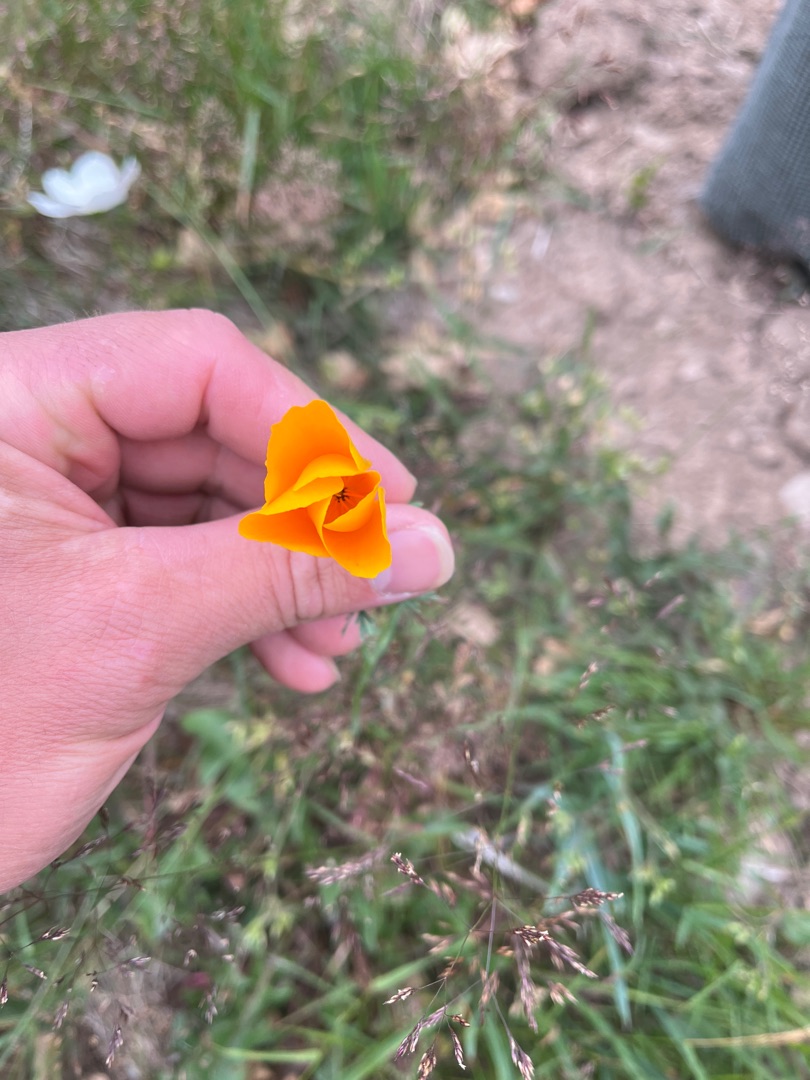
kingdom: Plantae
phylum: Tracheophyta
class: Magnoliopsida
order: Ranunculales
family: Papaveraceae
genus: Eschscholzia
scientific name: Eschscholzia californica
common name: Guldvalmue
